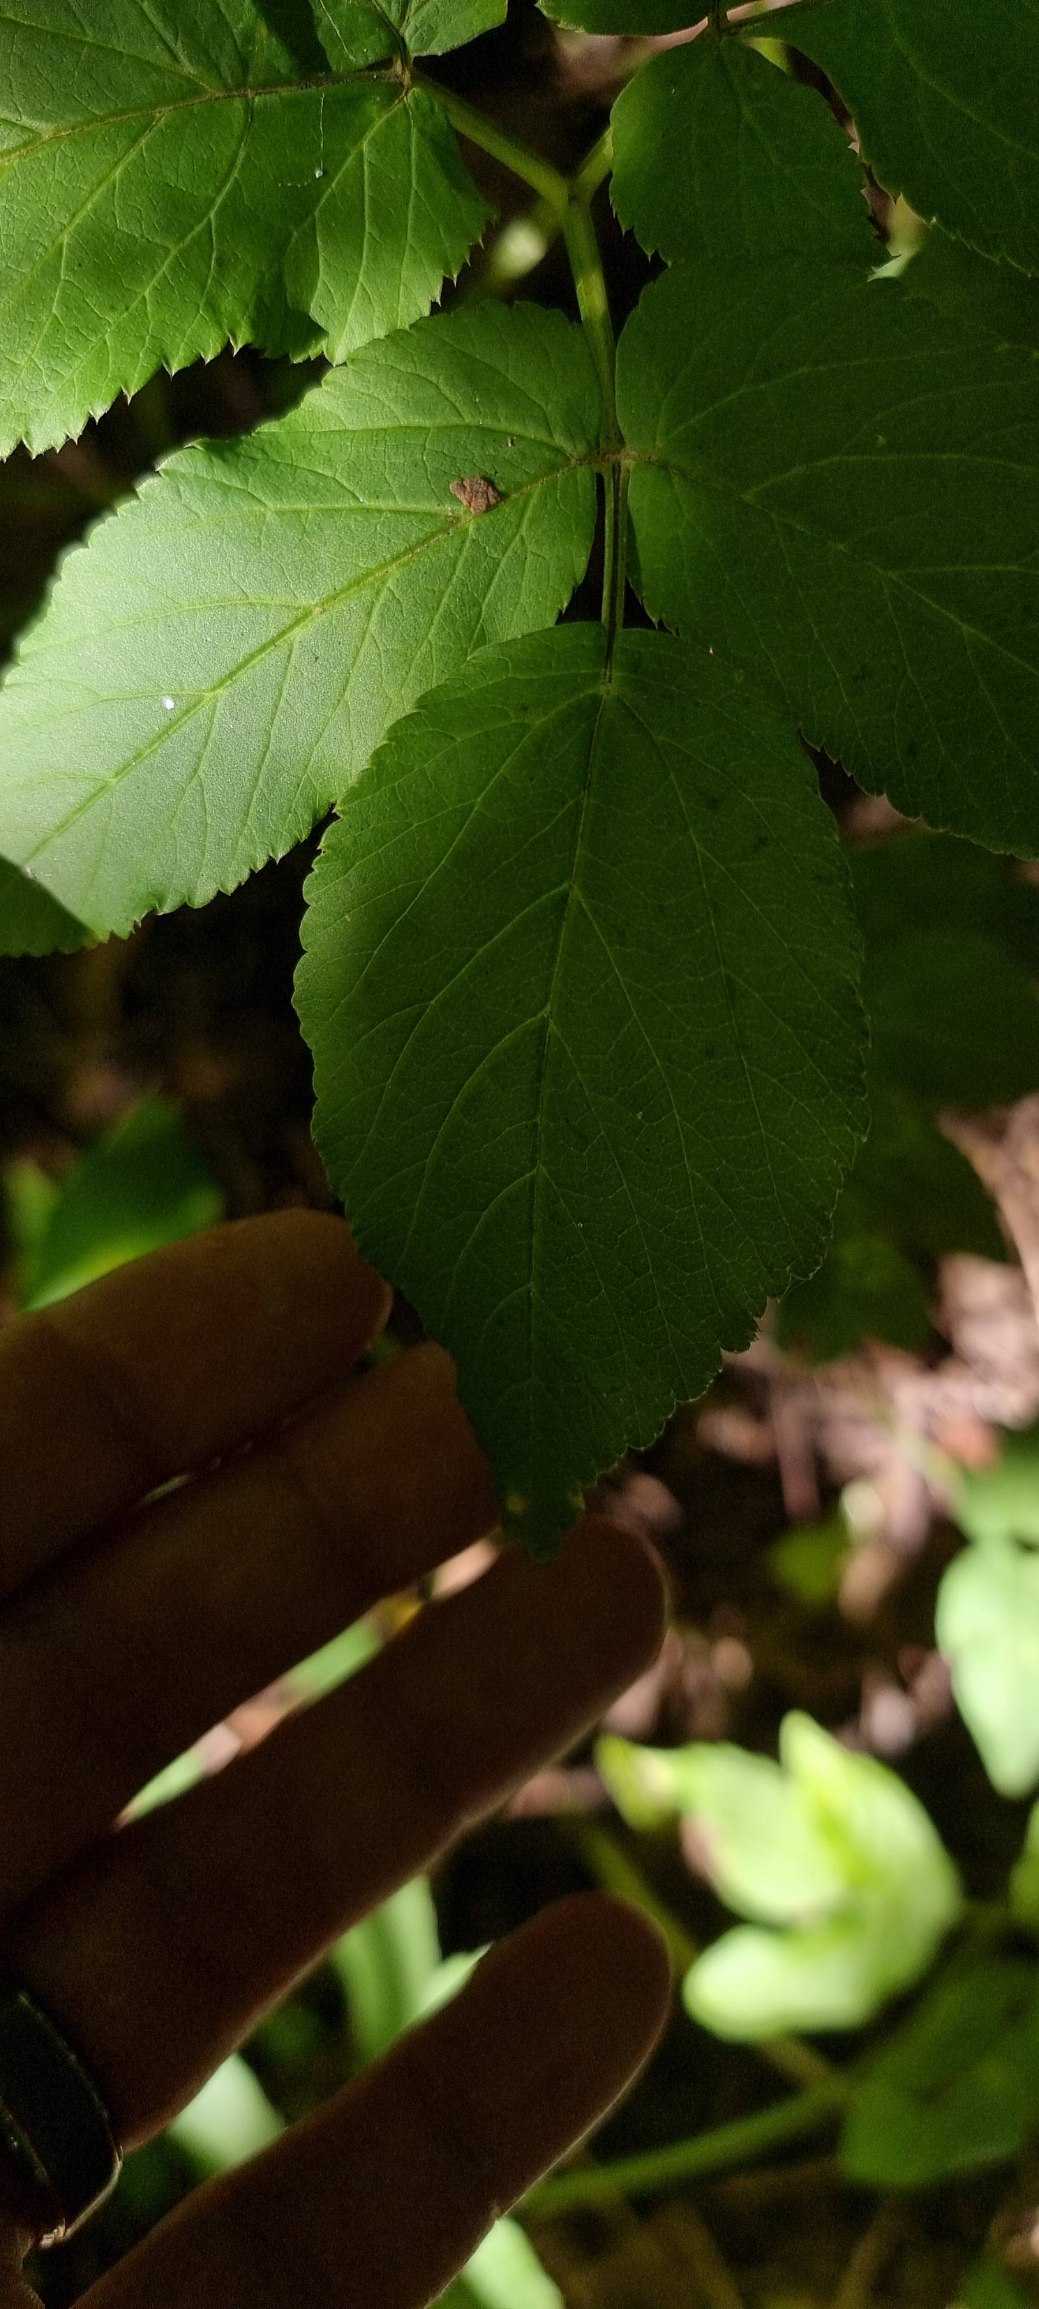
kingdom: Plantae
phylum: Tracheophyta
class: Magnoliopsida
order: Apiales
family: Apiaceae
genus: Aegopodium
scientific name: Aegopodium podagraria
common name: Skvalderkål
